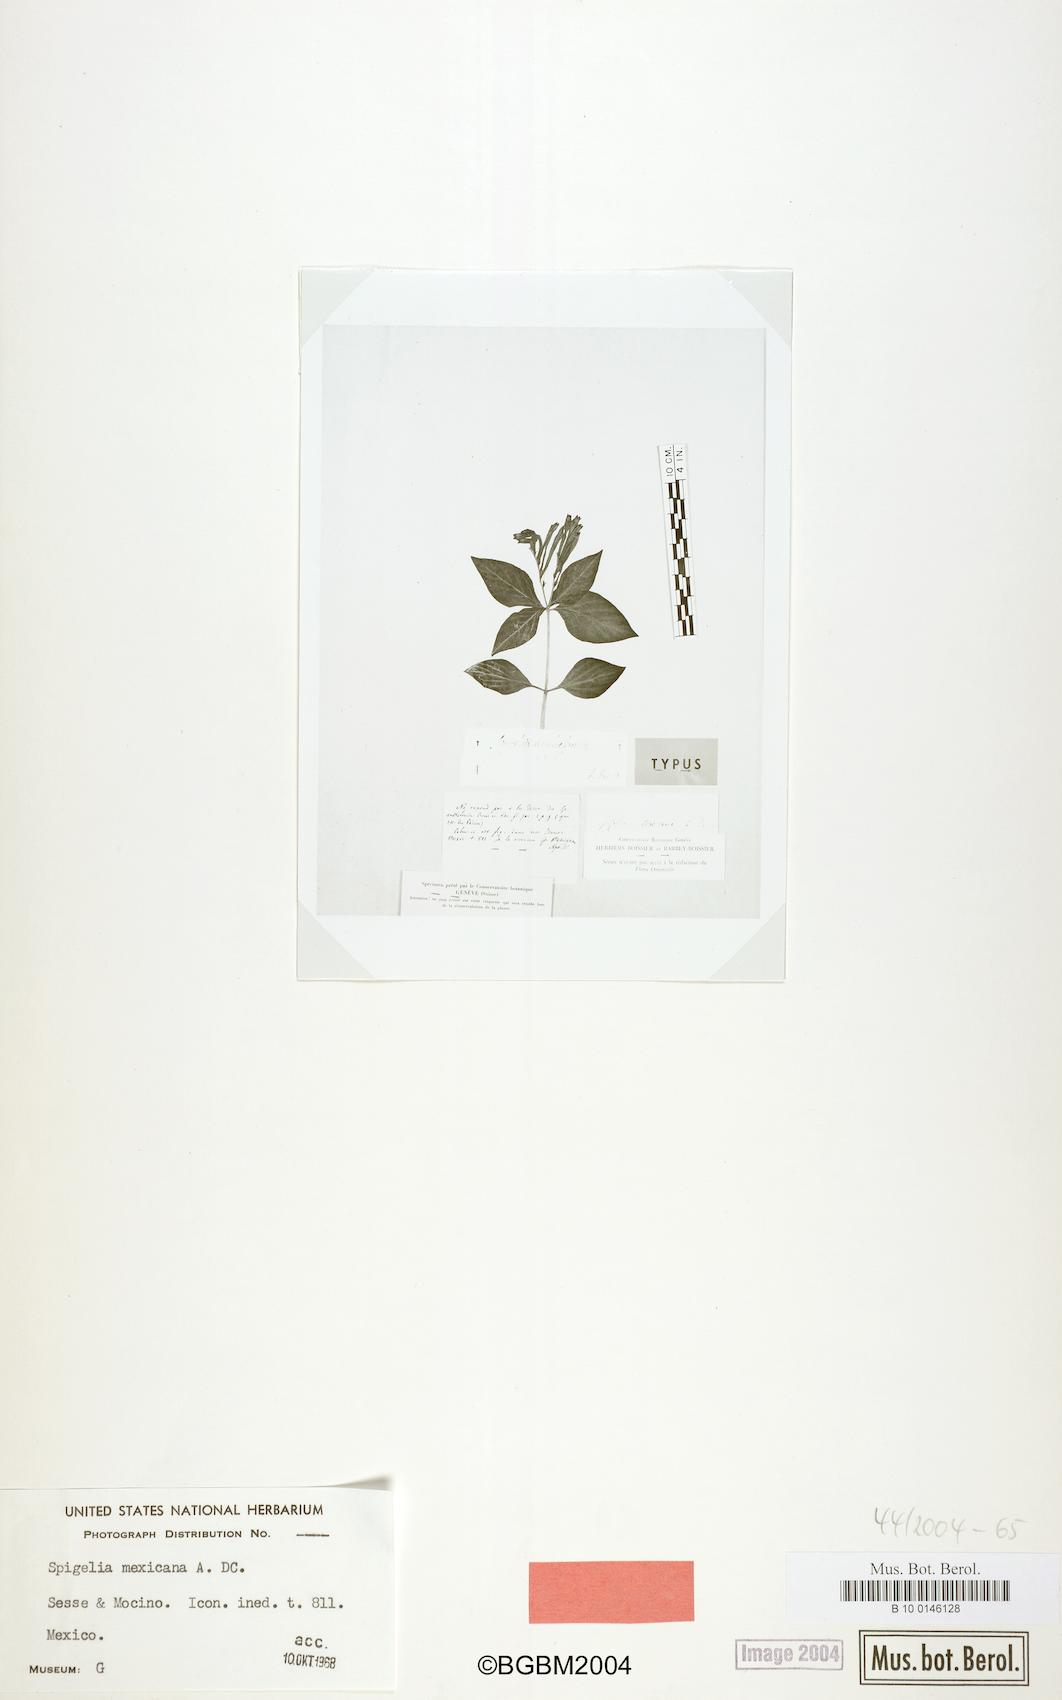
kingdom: Plantae
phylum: Tracheophyta
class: Magnoliopsida
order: Gentianales
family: Loganiaceae
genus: Spigelia
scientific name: Spigelia mexicana
